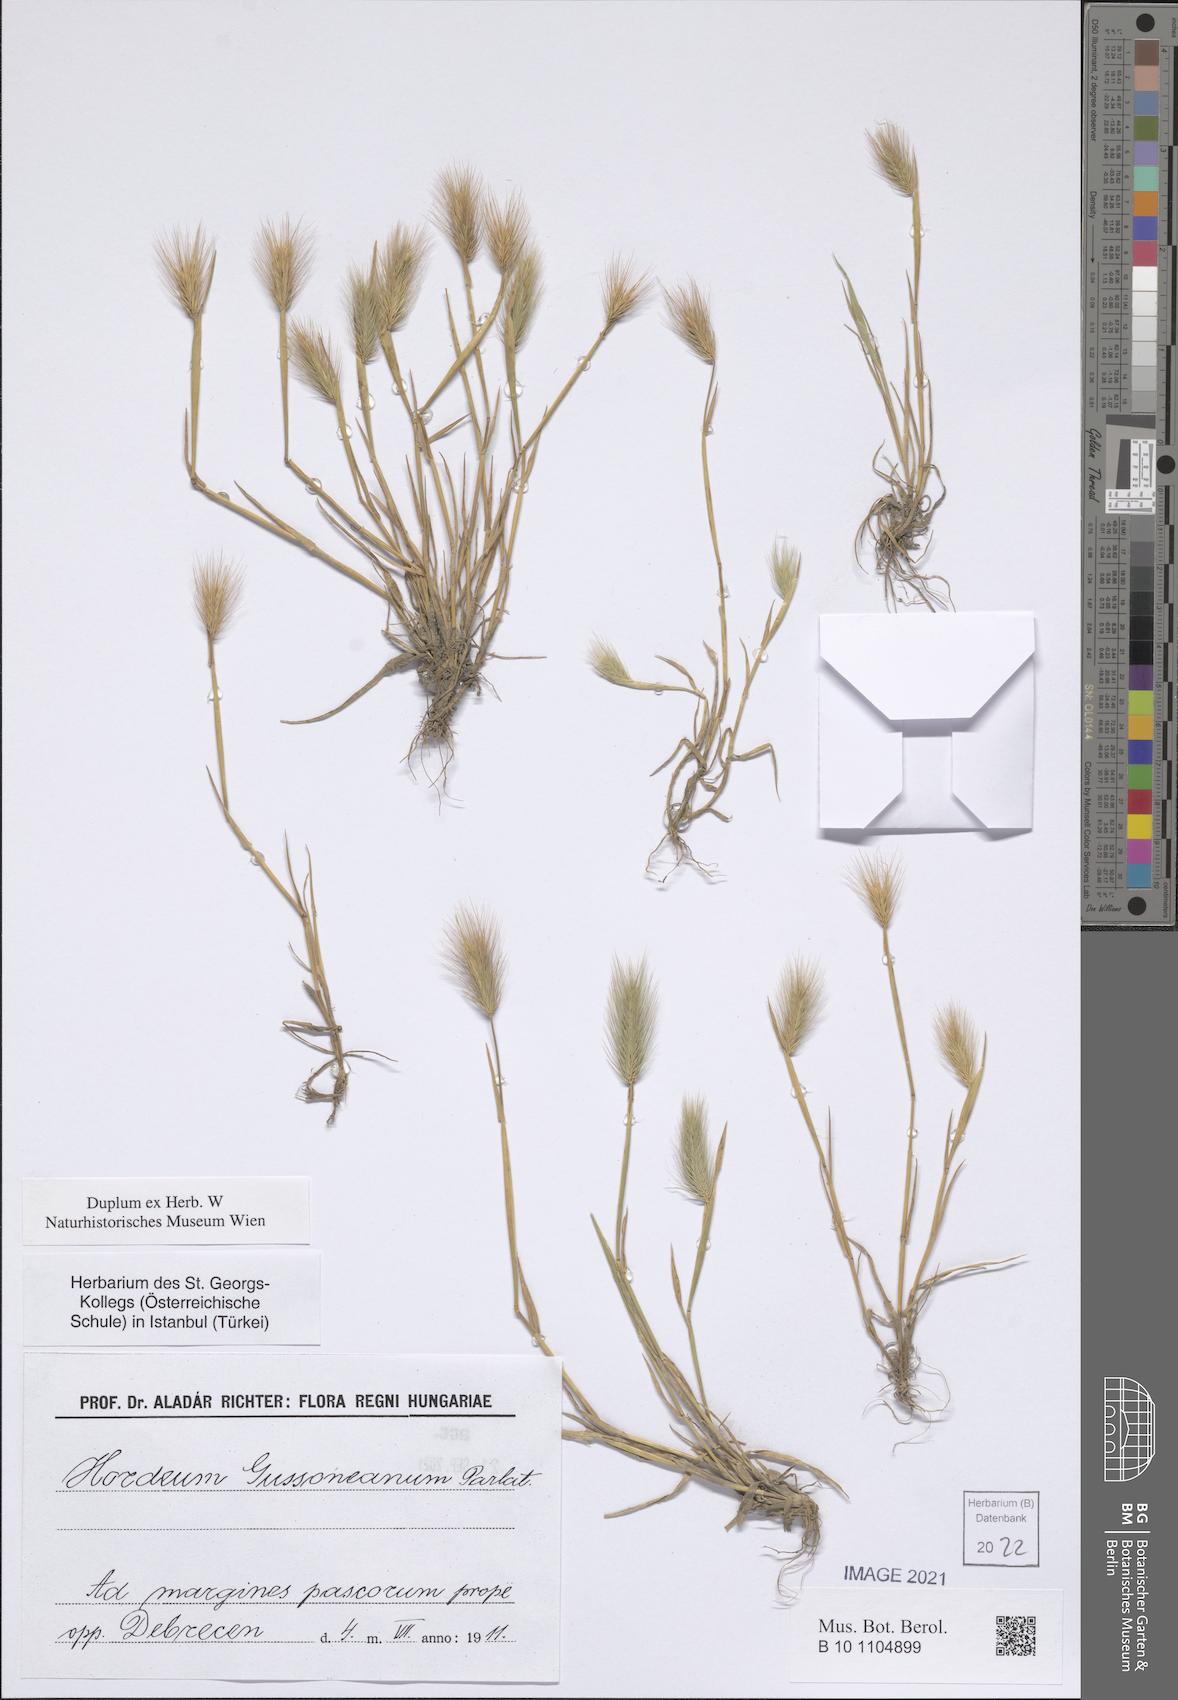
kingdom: Plantae
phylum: Tracheophyta
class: Liliopsida
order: Poales
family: Poaceae
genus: Hordeum
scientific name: Hordeum marinum
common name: Sea barley
